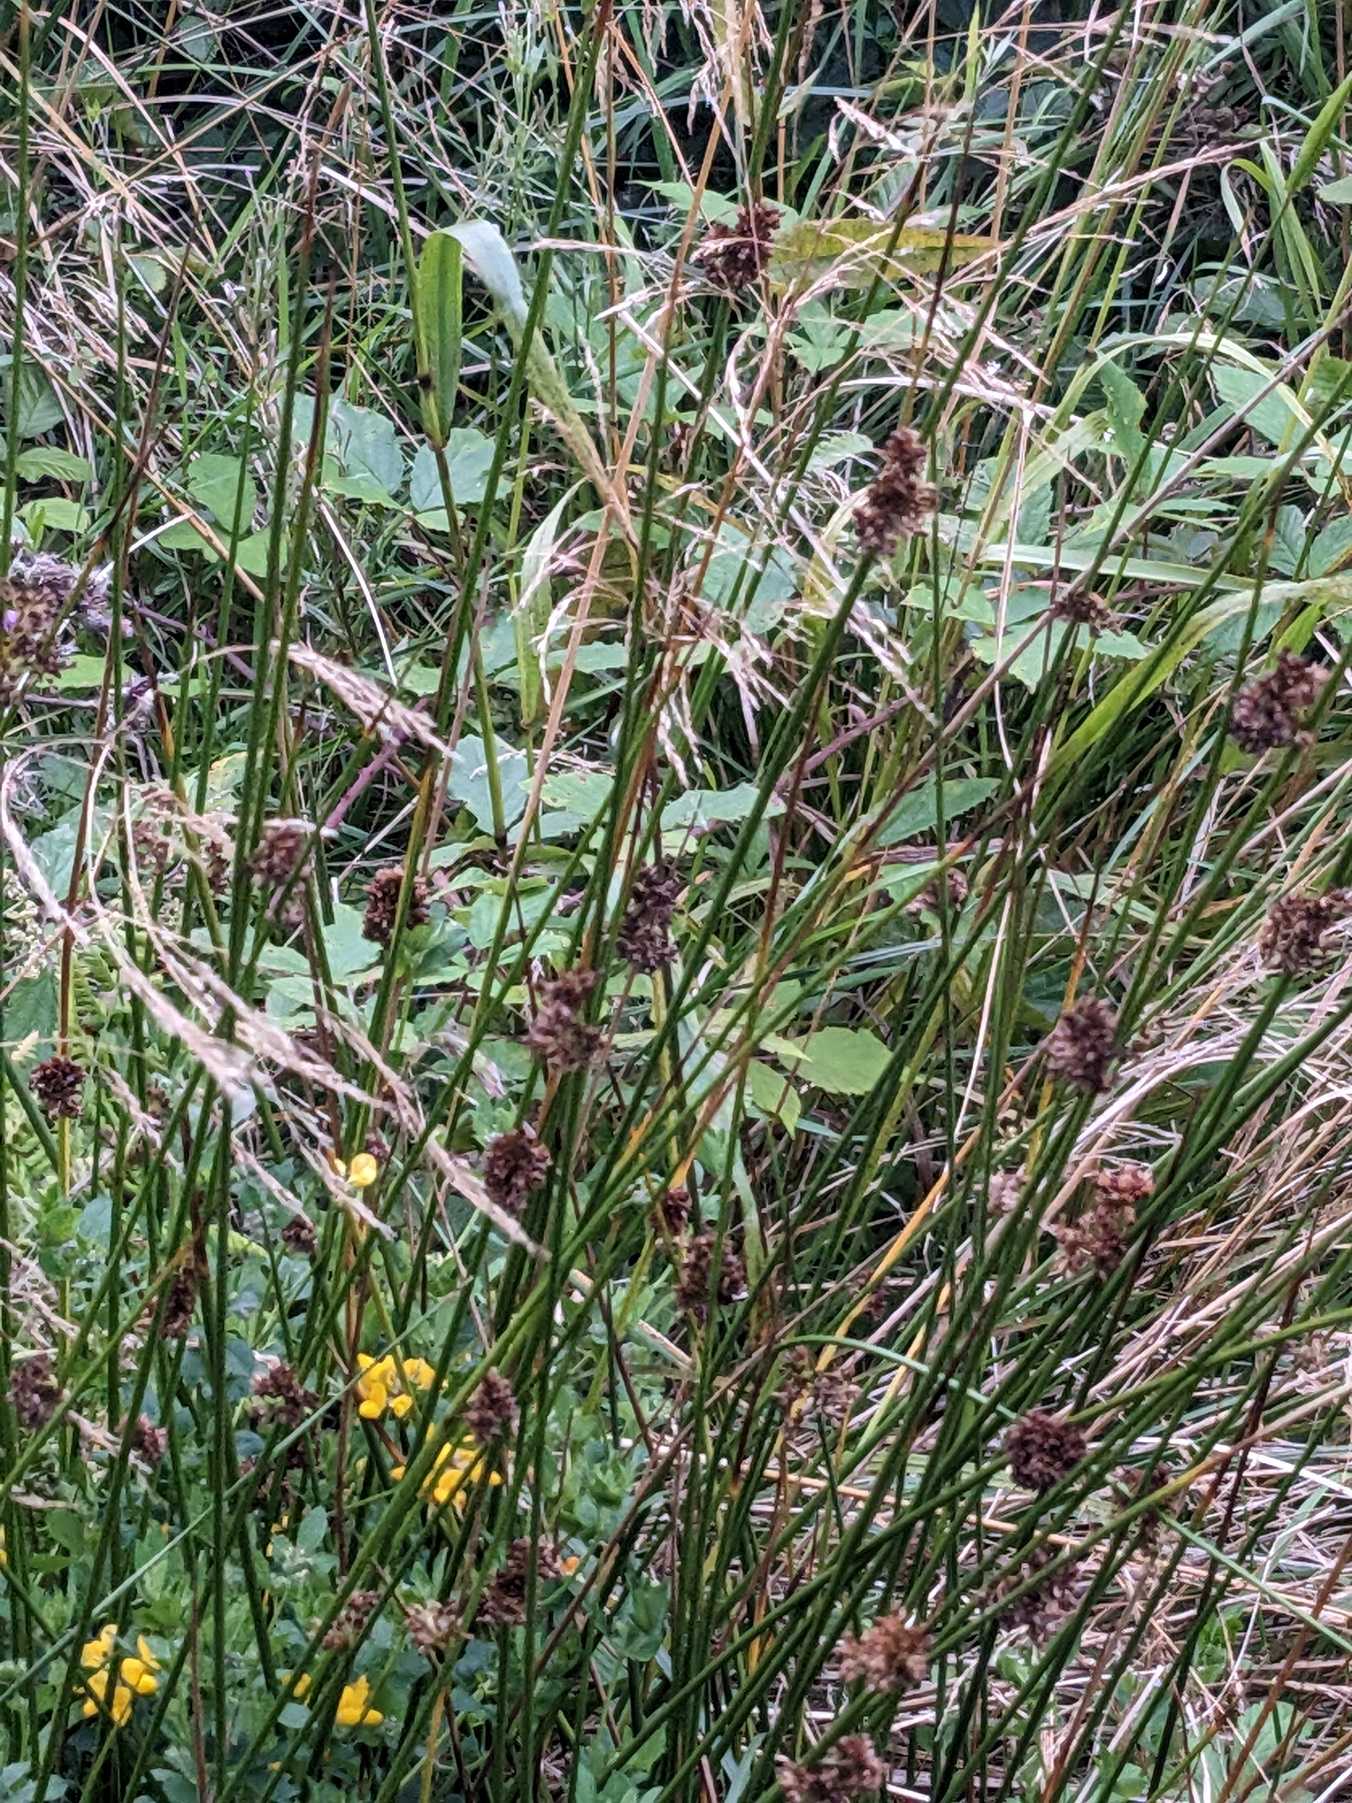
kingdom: Plantae
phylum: Tracheophyta
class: Liliopsida
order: Poales
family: Juncaceae
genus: Juncus
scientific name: Juncus
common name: Sivslægten
